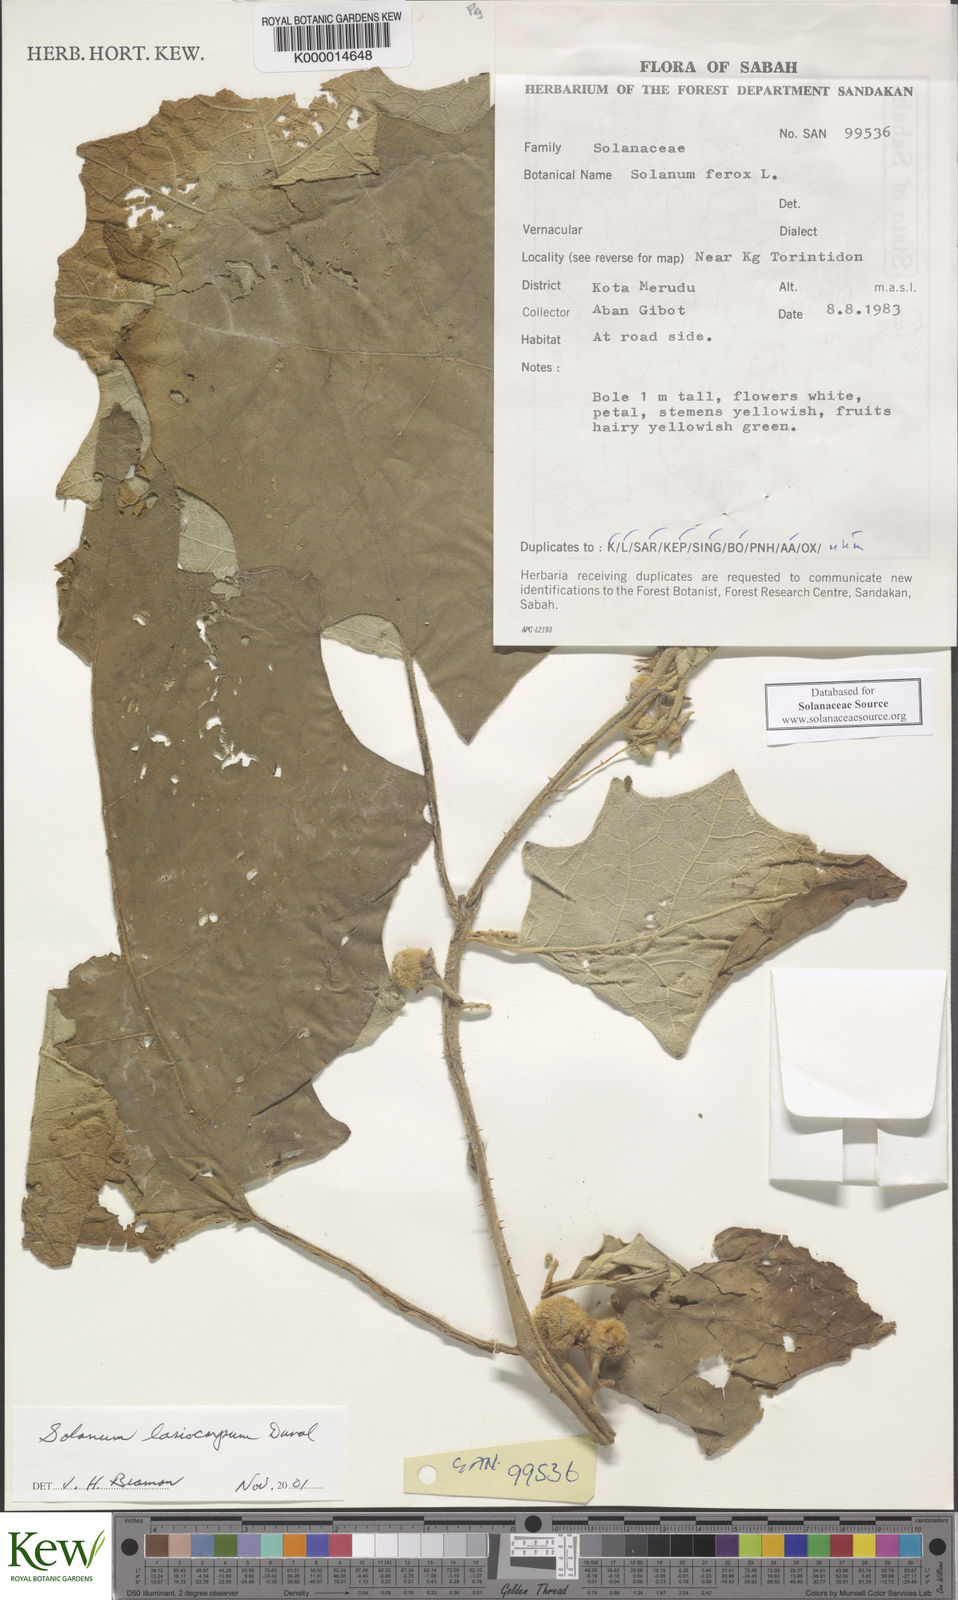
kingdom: Plantae
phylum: Tracheophyta
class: Magnoliopsida
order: Solanales
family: Solanaceae
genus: Solanum
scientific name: Solanum lasiocarpum
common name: Indian nightshade
